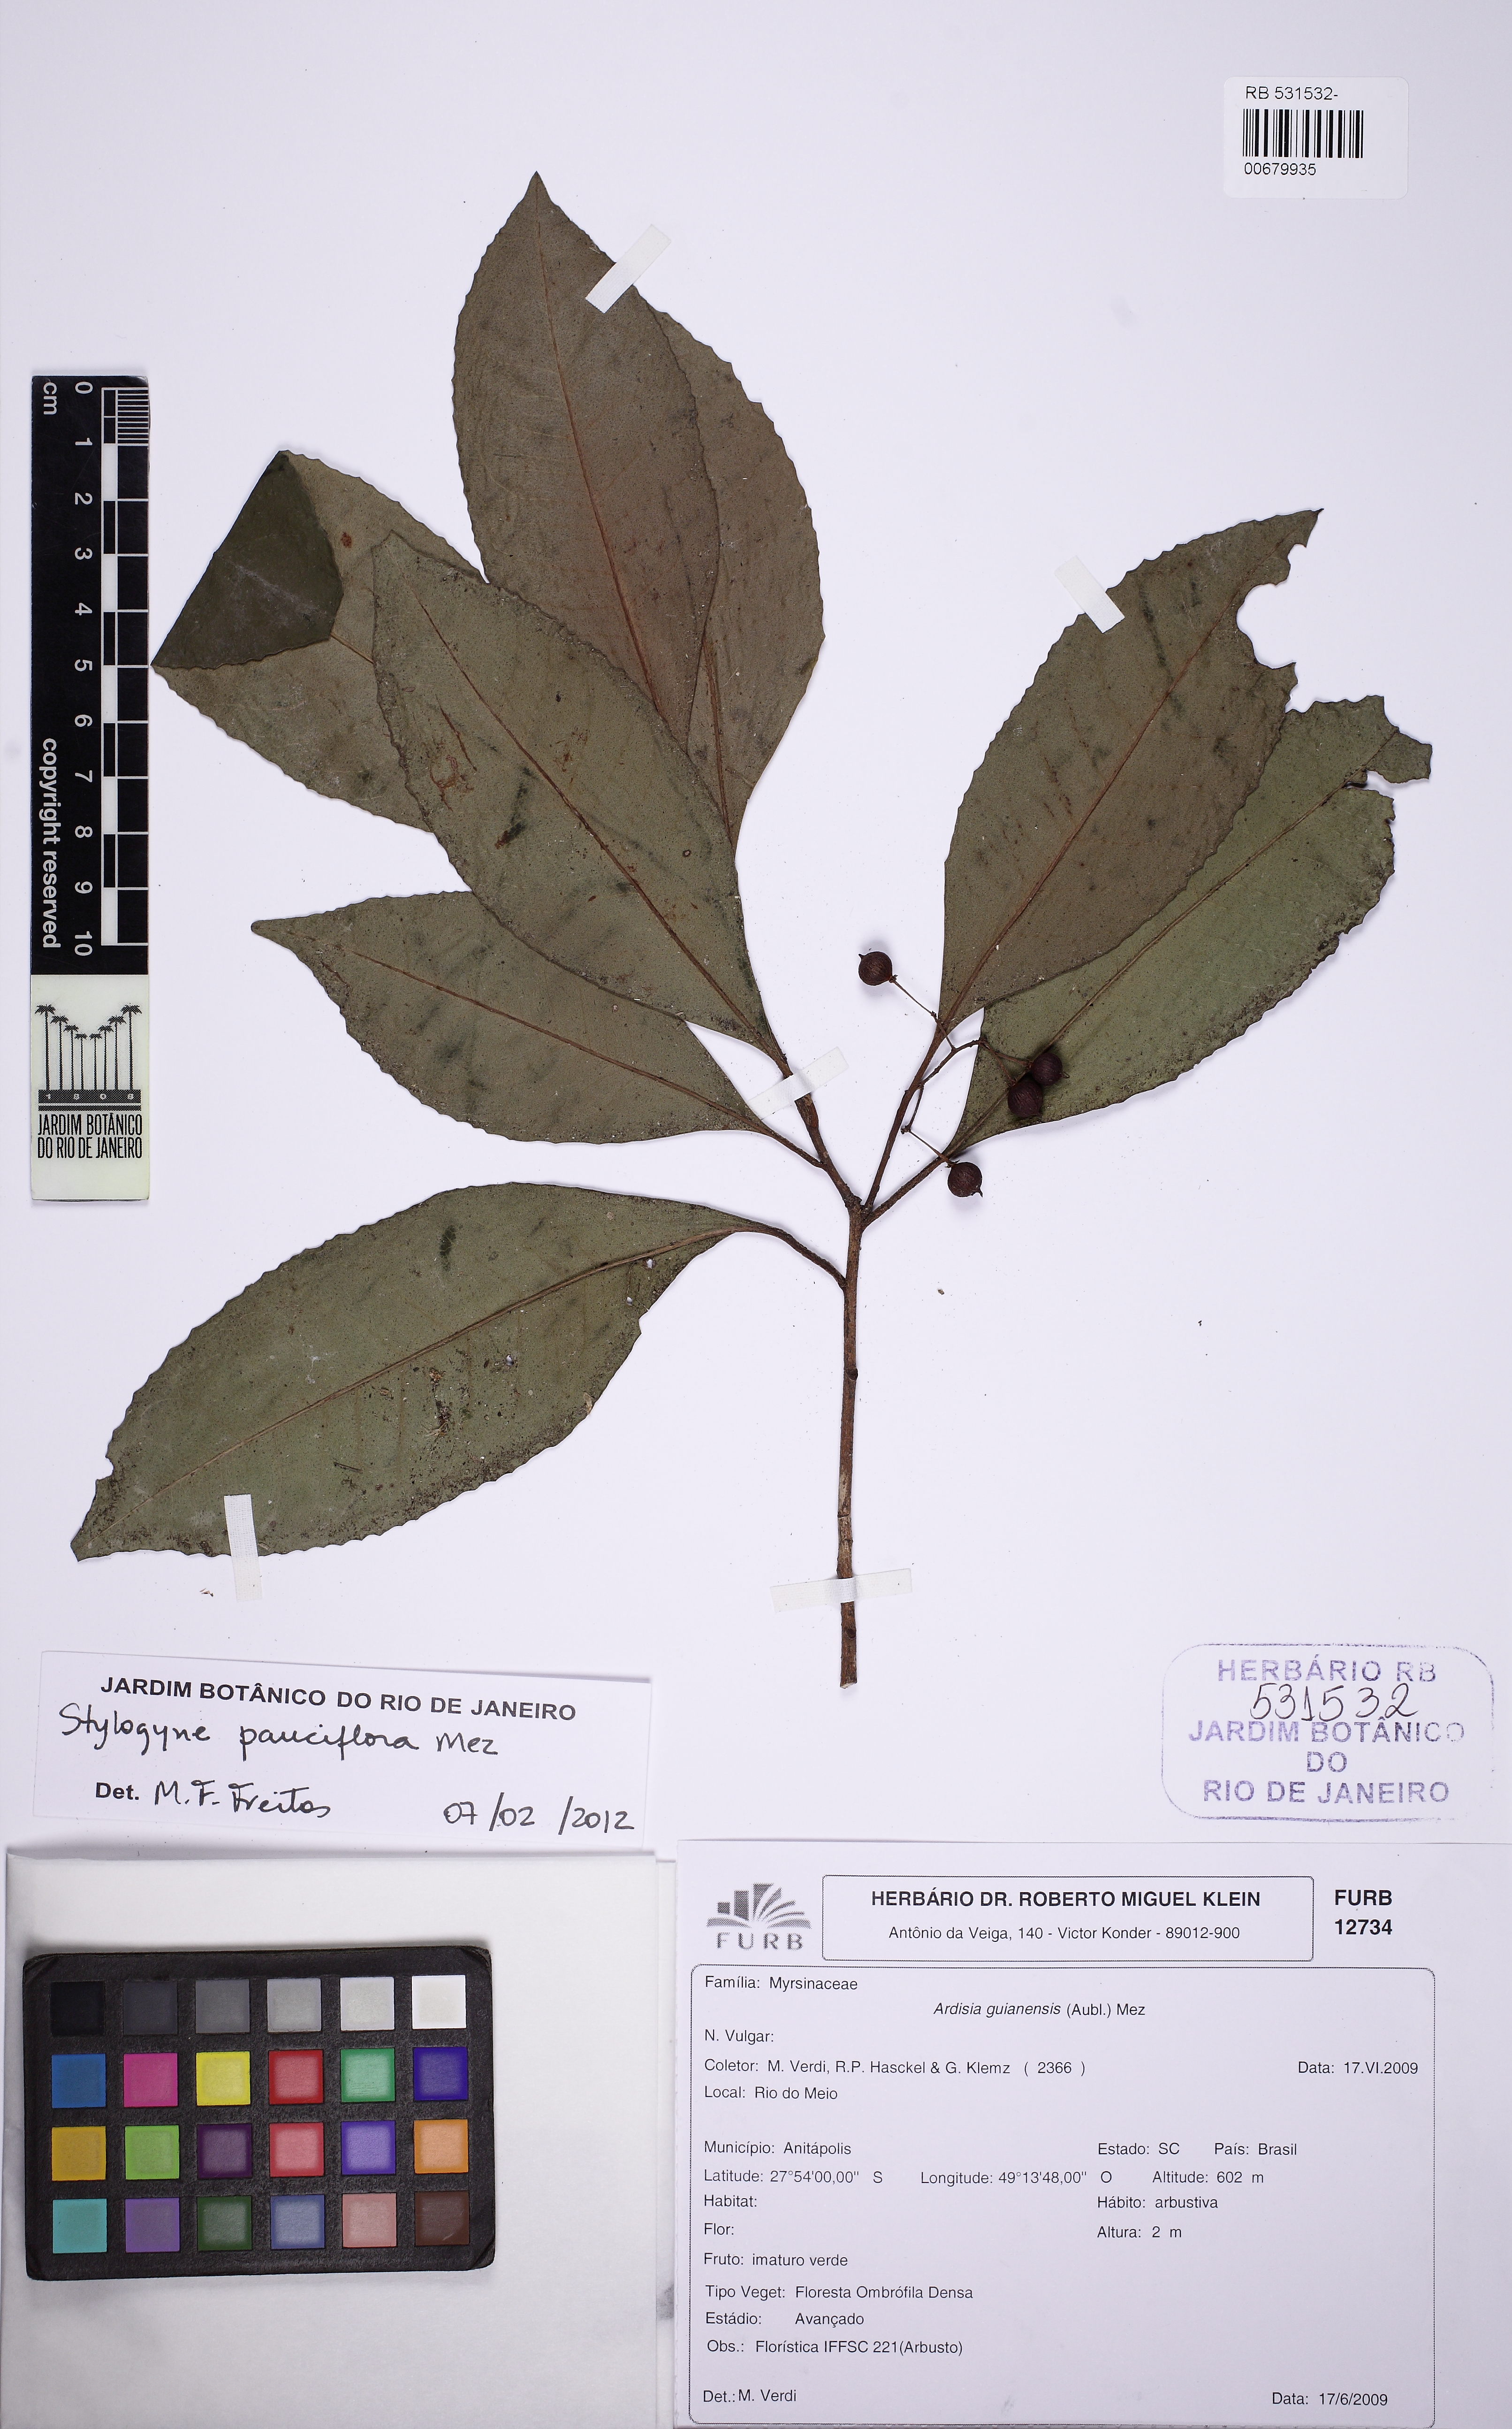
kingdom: Plantae
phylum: Tracheophyta
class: Magnoliopsida
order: Ericales
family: Primulaceae
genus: Stylogyne
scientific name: Stylogyne pauciflora
